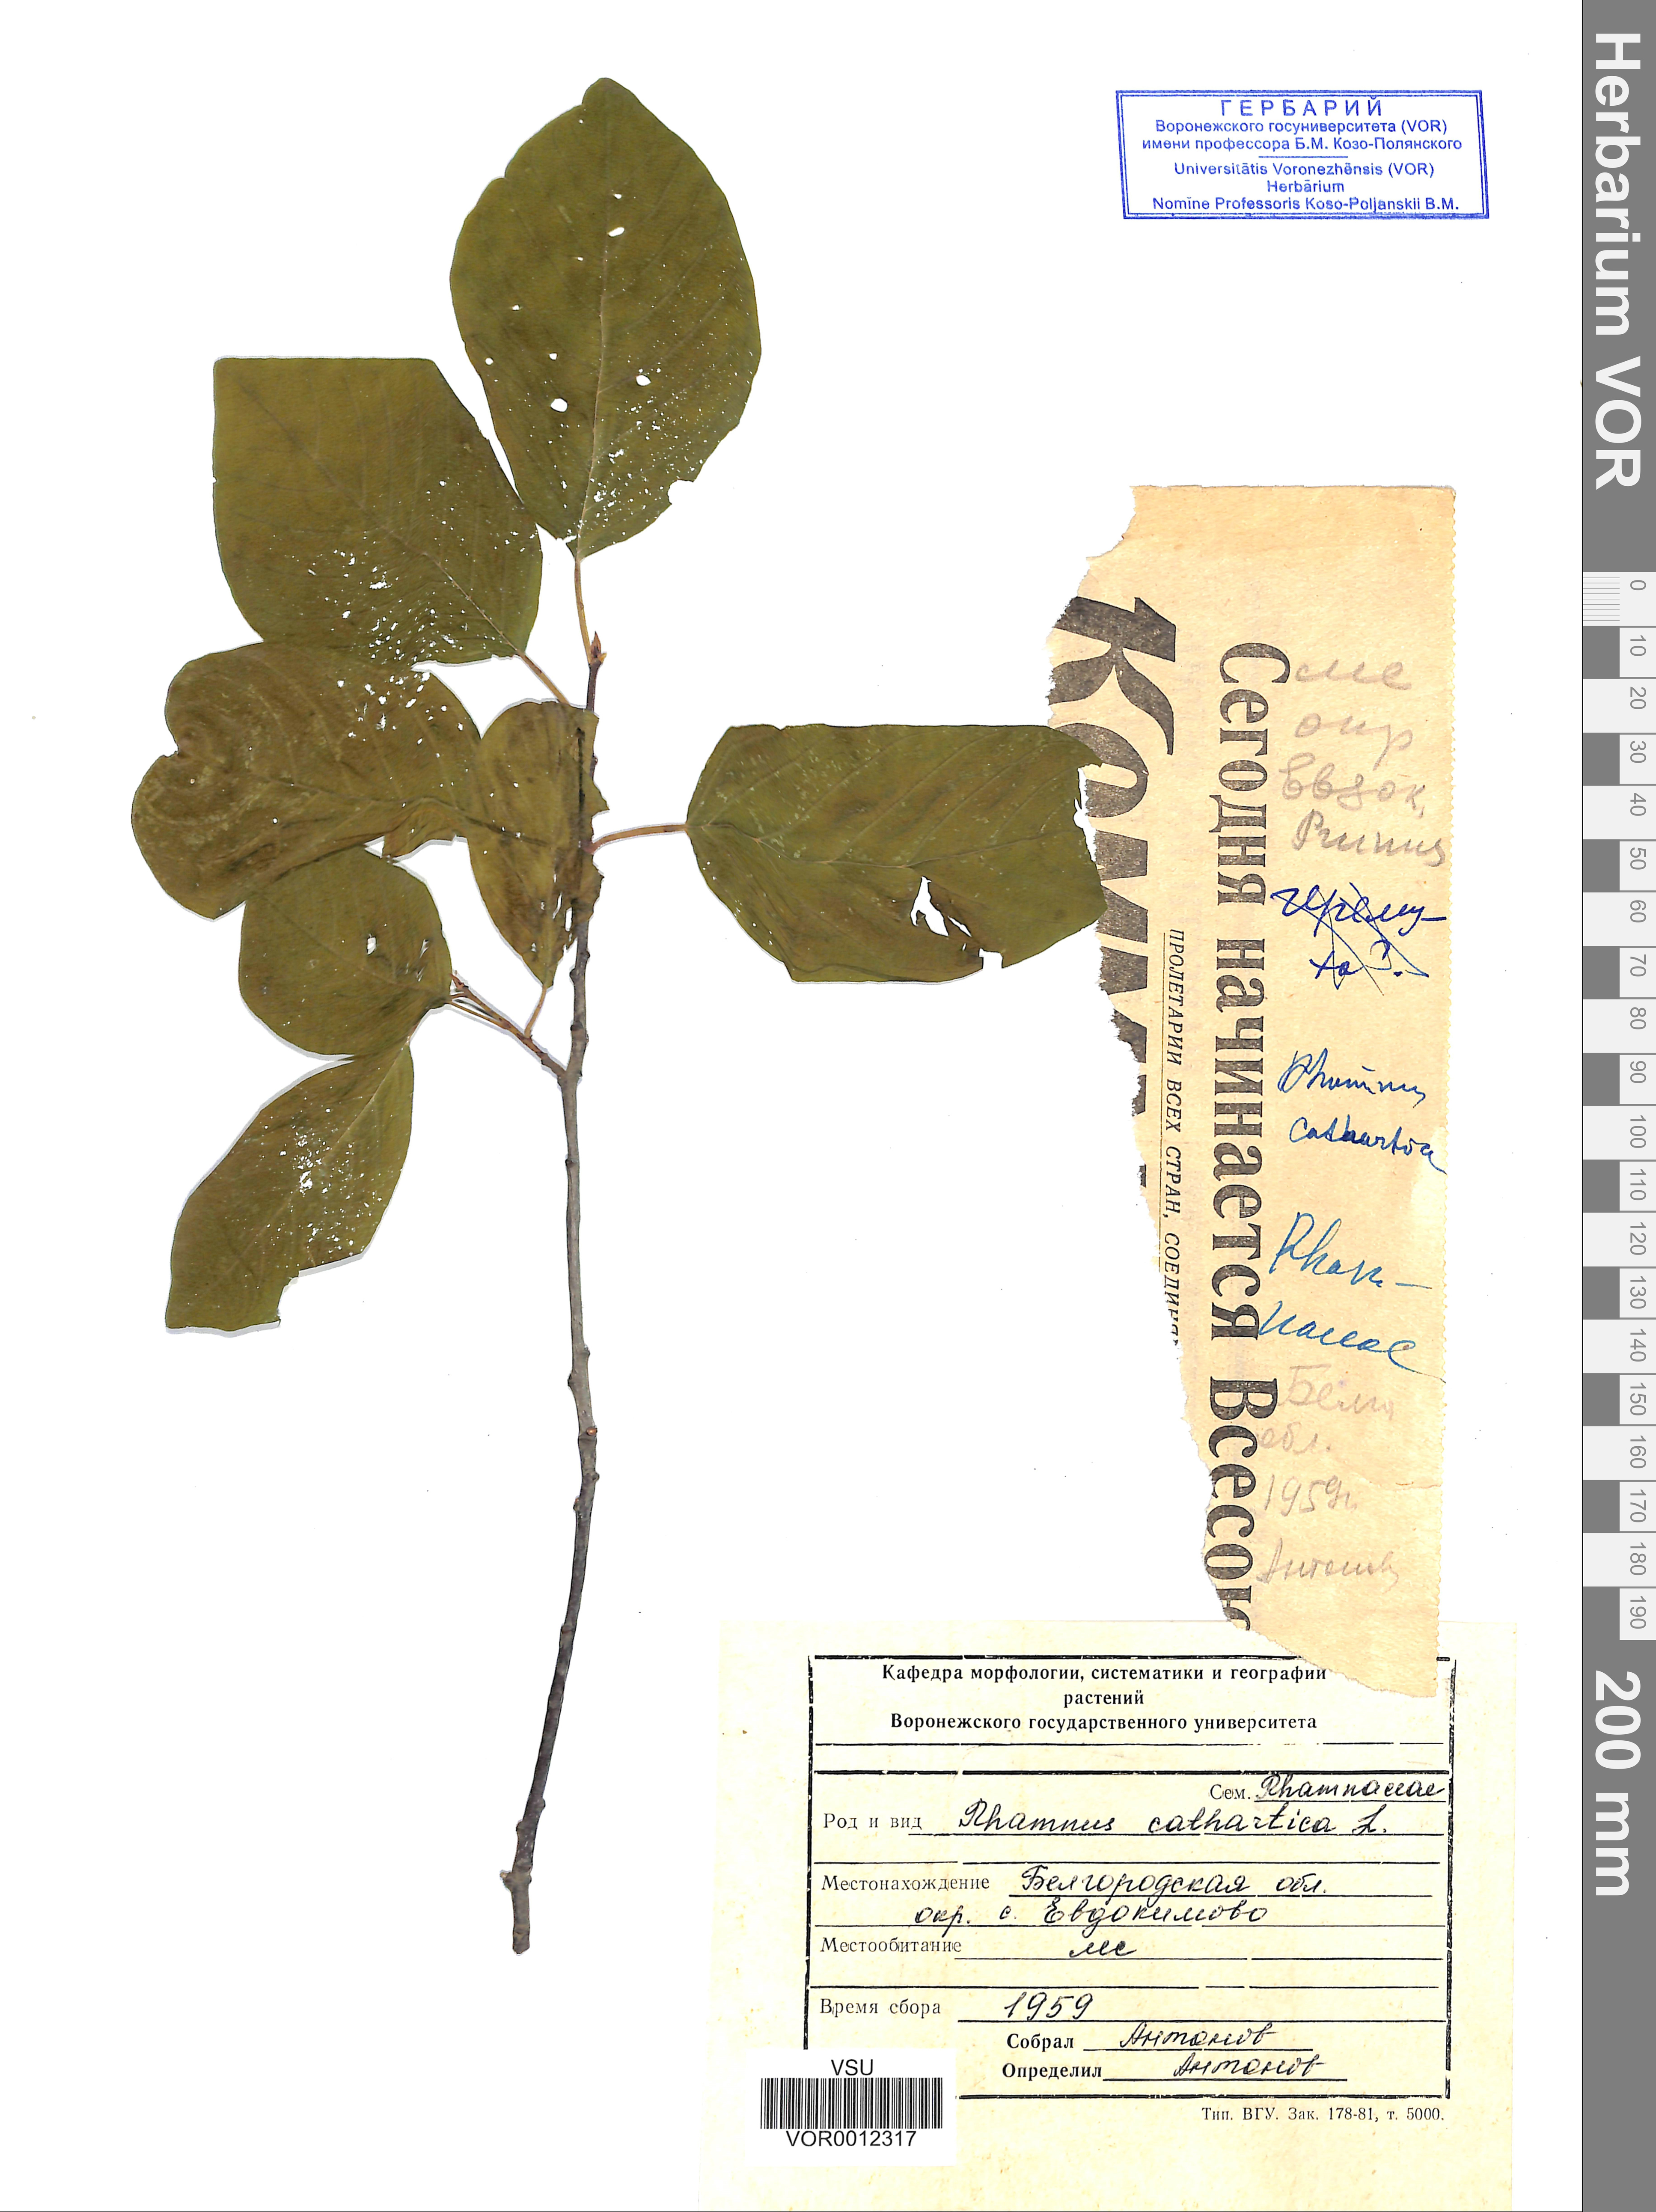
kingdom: Plantae
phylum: Tracheophyta
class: Magnoliopsida
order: Rosales
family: Rhamnaceae
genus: Rhamnus
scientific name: Rhamnus cathartica
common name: Common buckthorn
